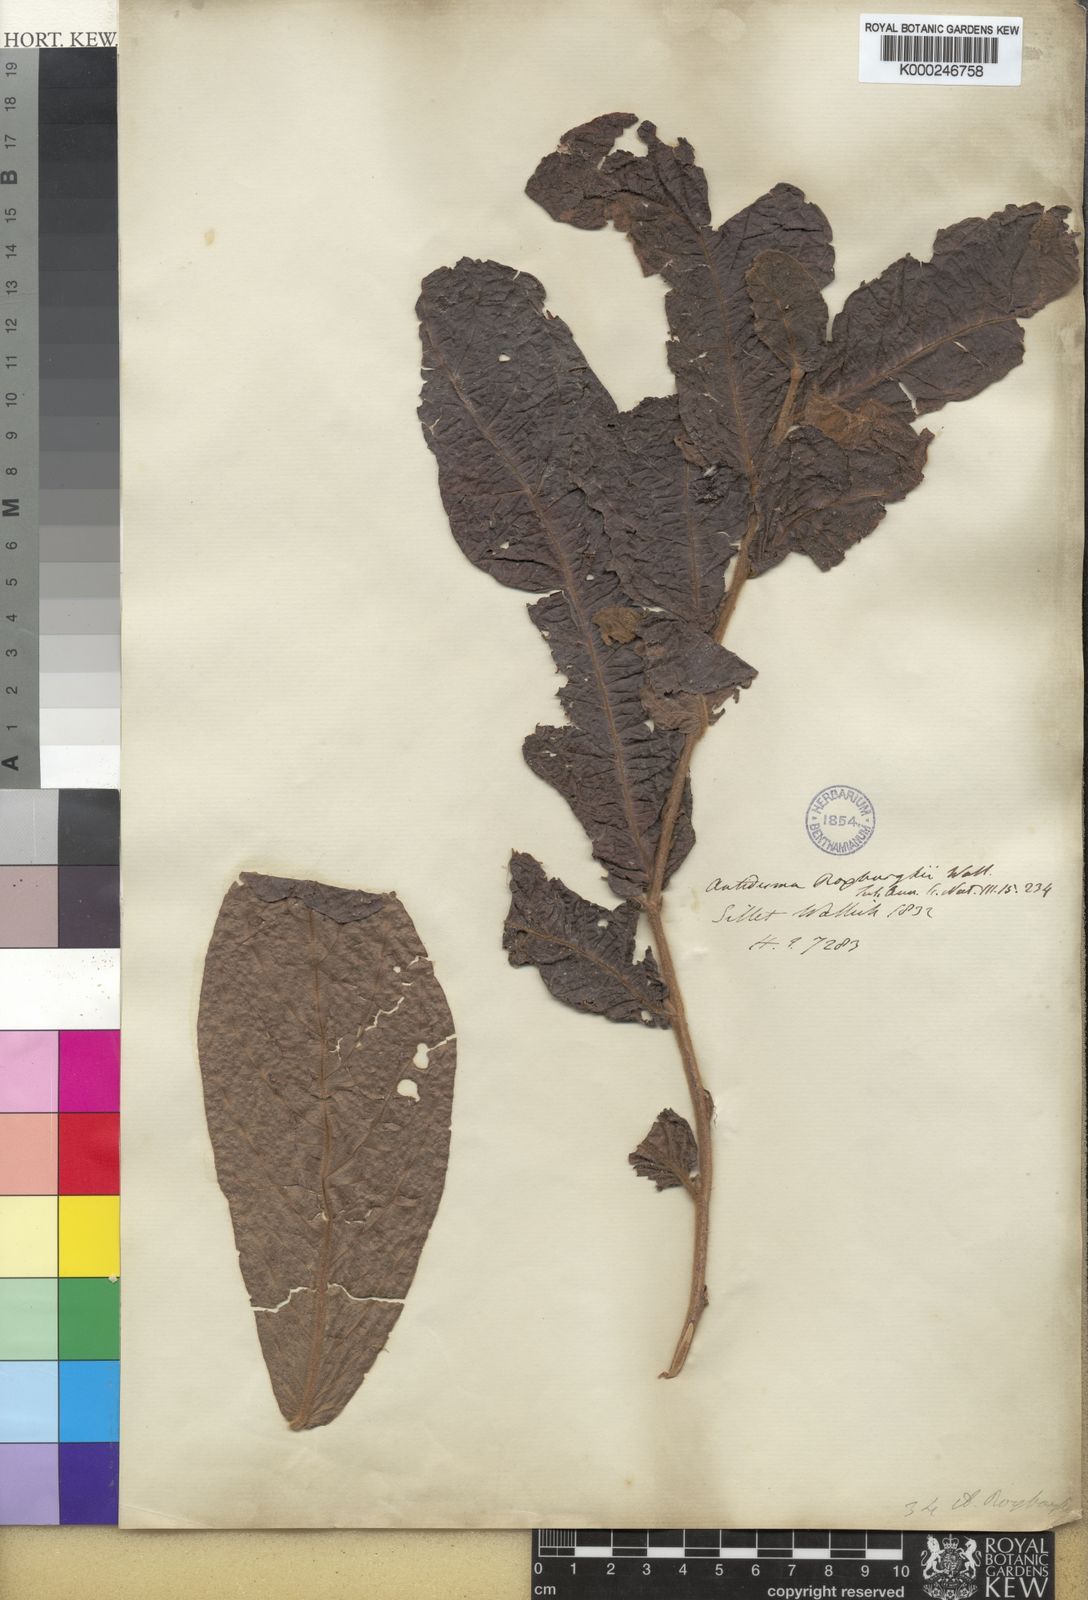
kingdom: Plantae
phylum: Tracheophyta
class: Magnoliopsida
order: Malpighiales
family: Phyllanthaceae
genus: Antidesma
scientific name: Antidesma roxburghii
